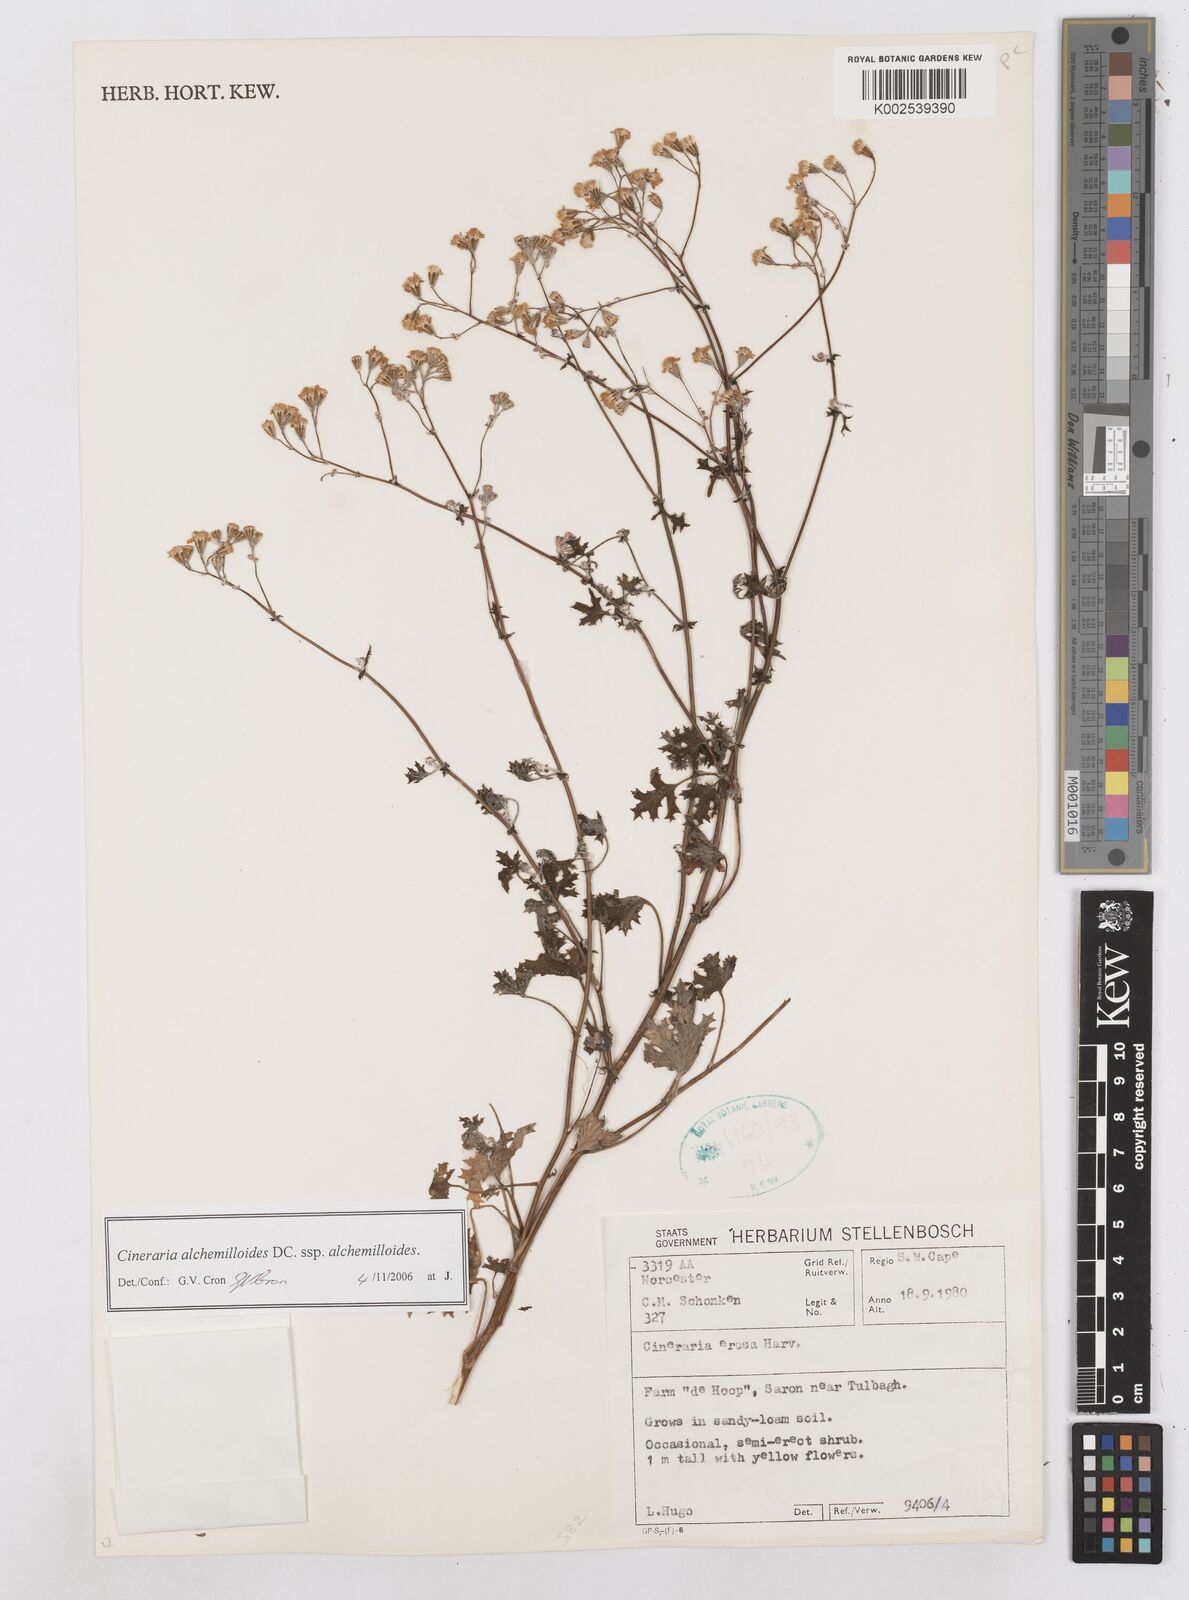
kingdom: Plantae
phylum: Tracheophyta
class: Magnoliopsida
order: Asterales
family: Asteraceae
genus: Cineraria
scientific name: Cineraria alchemilloides
